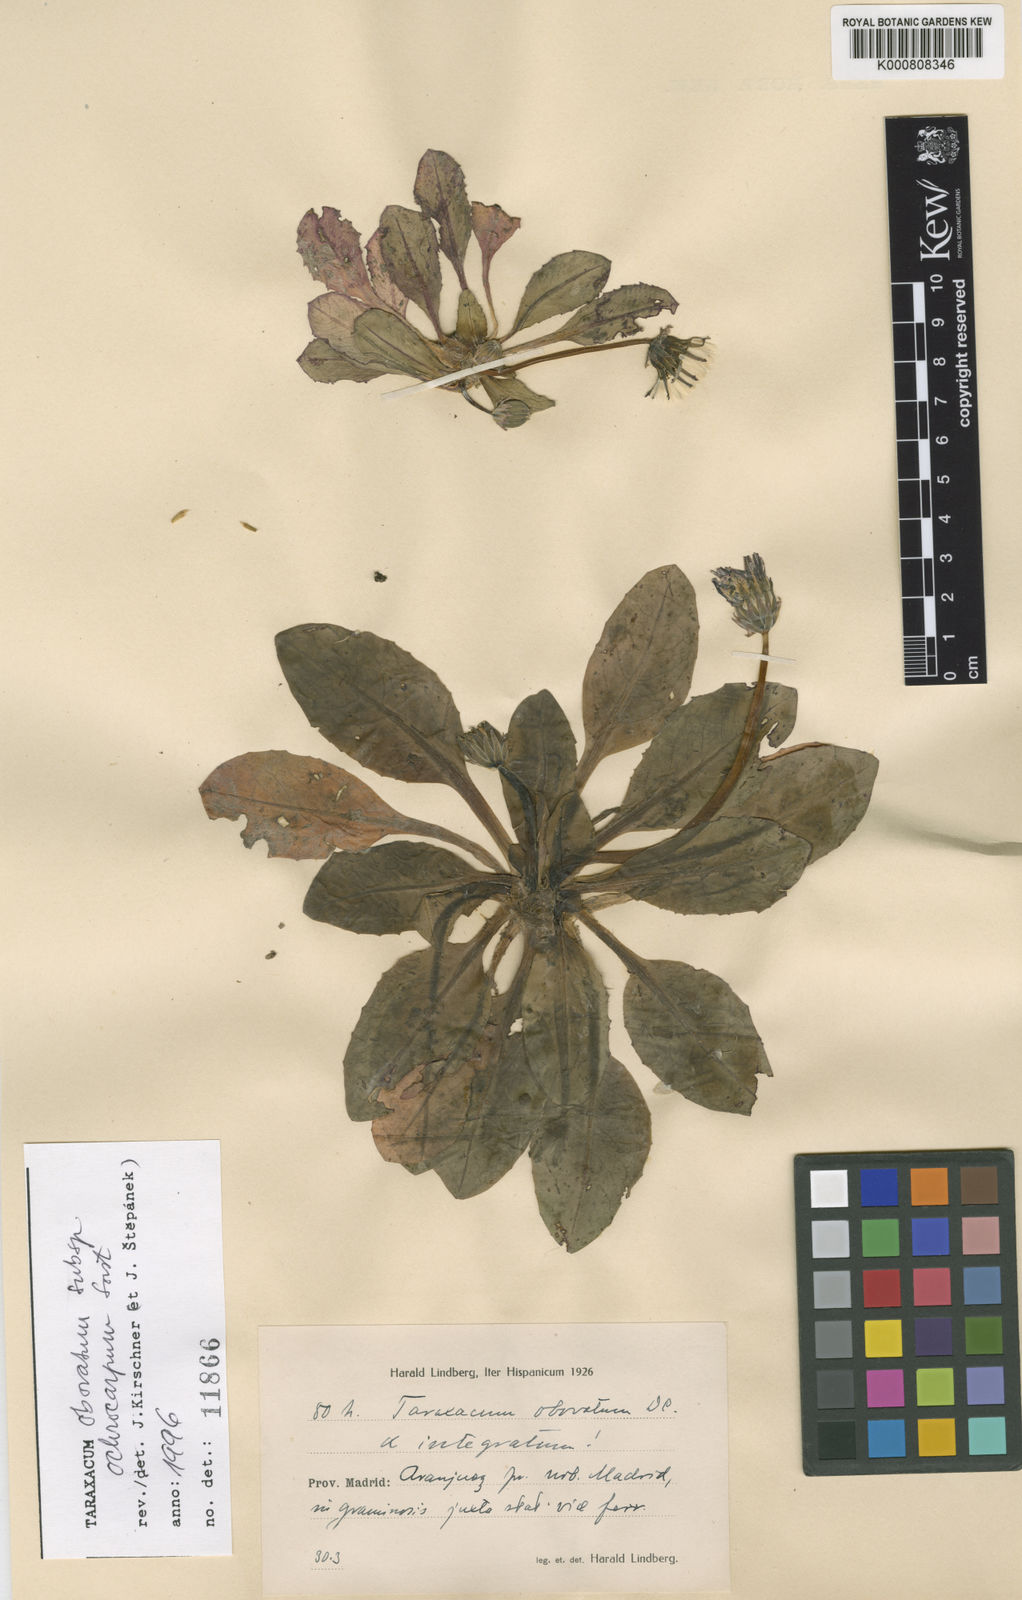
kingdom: Plantae
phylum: Tracheophyta
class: Magnoliopsida
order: Asterales
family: Asteraceae
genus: Taraxacum
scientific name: Taraxacum obovatum
